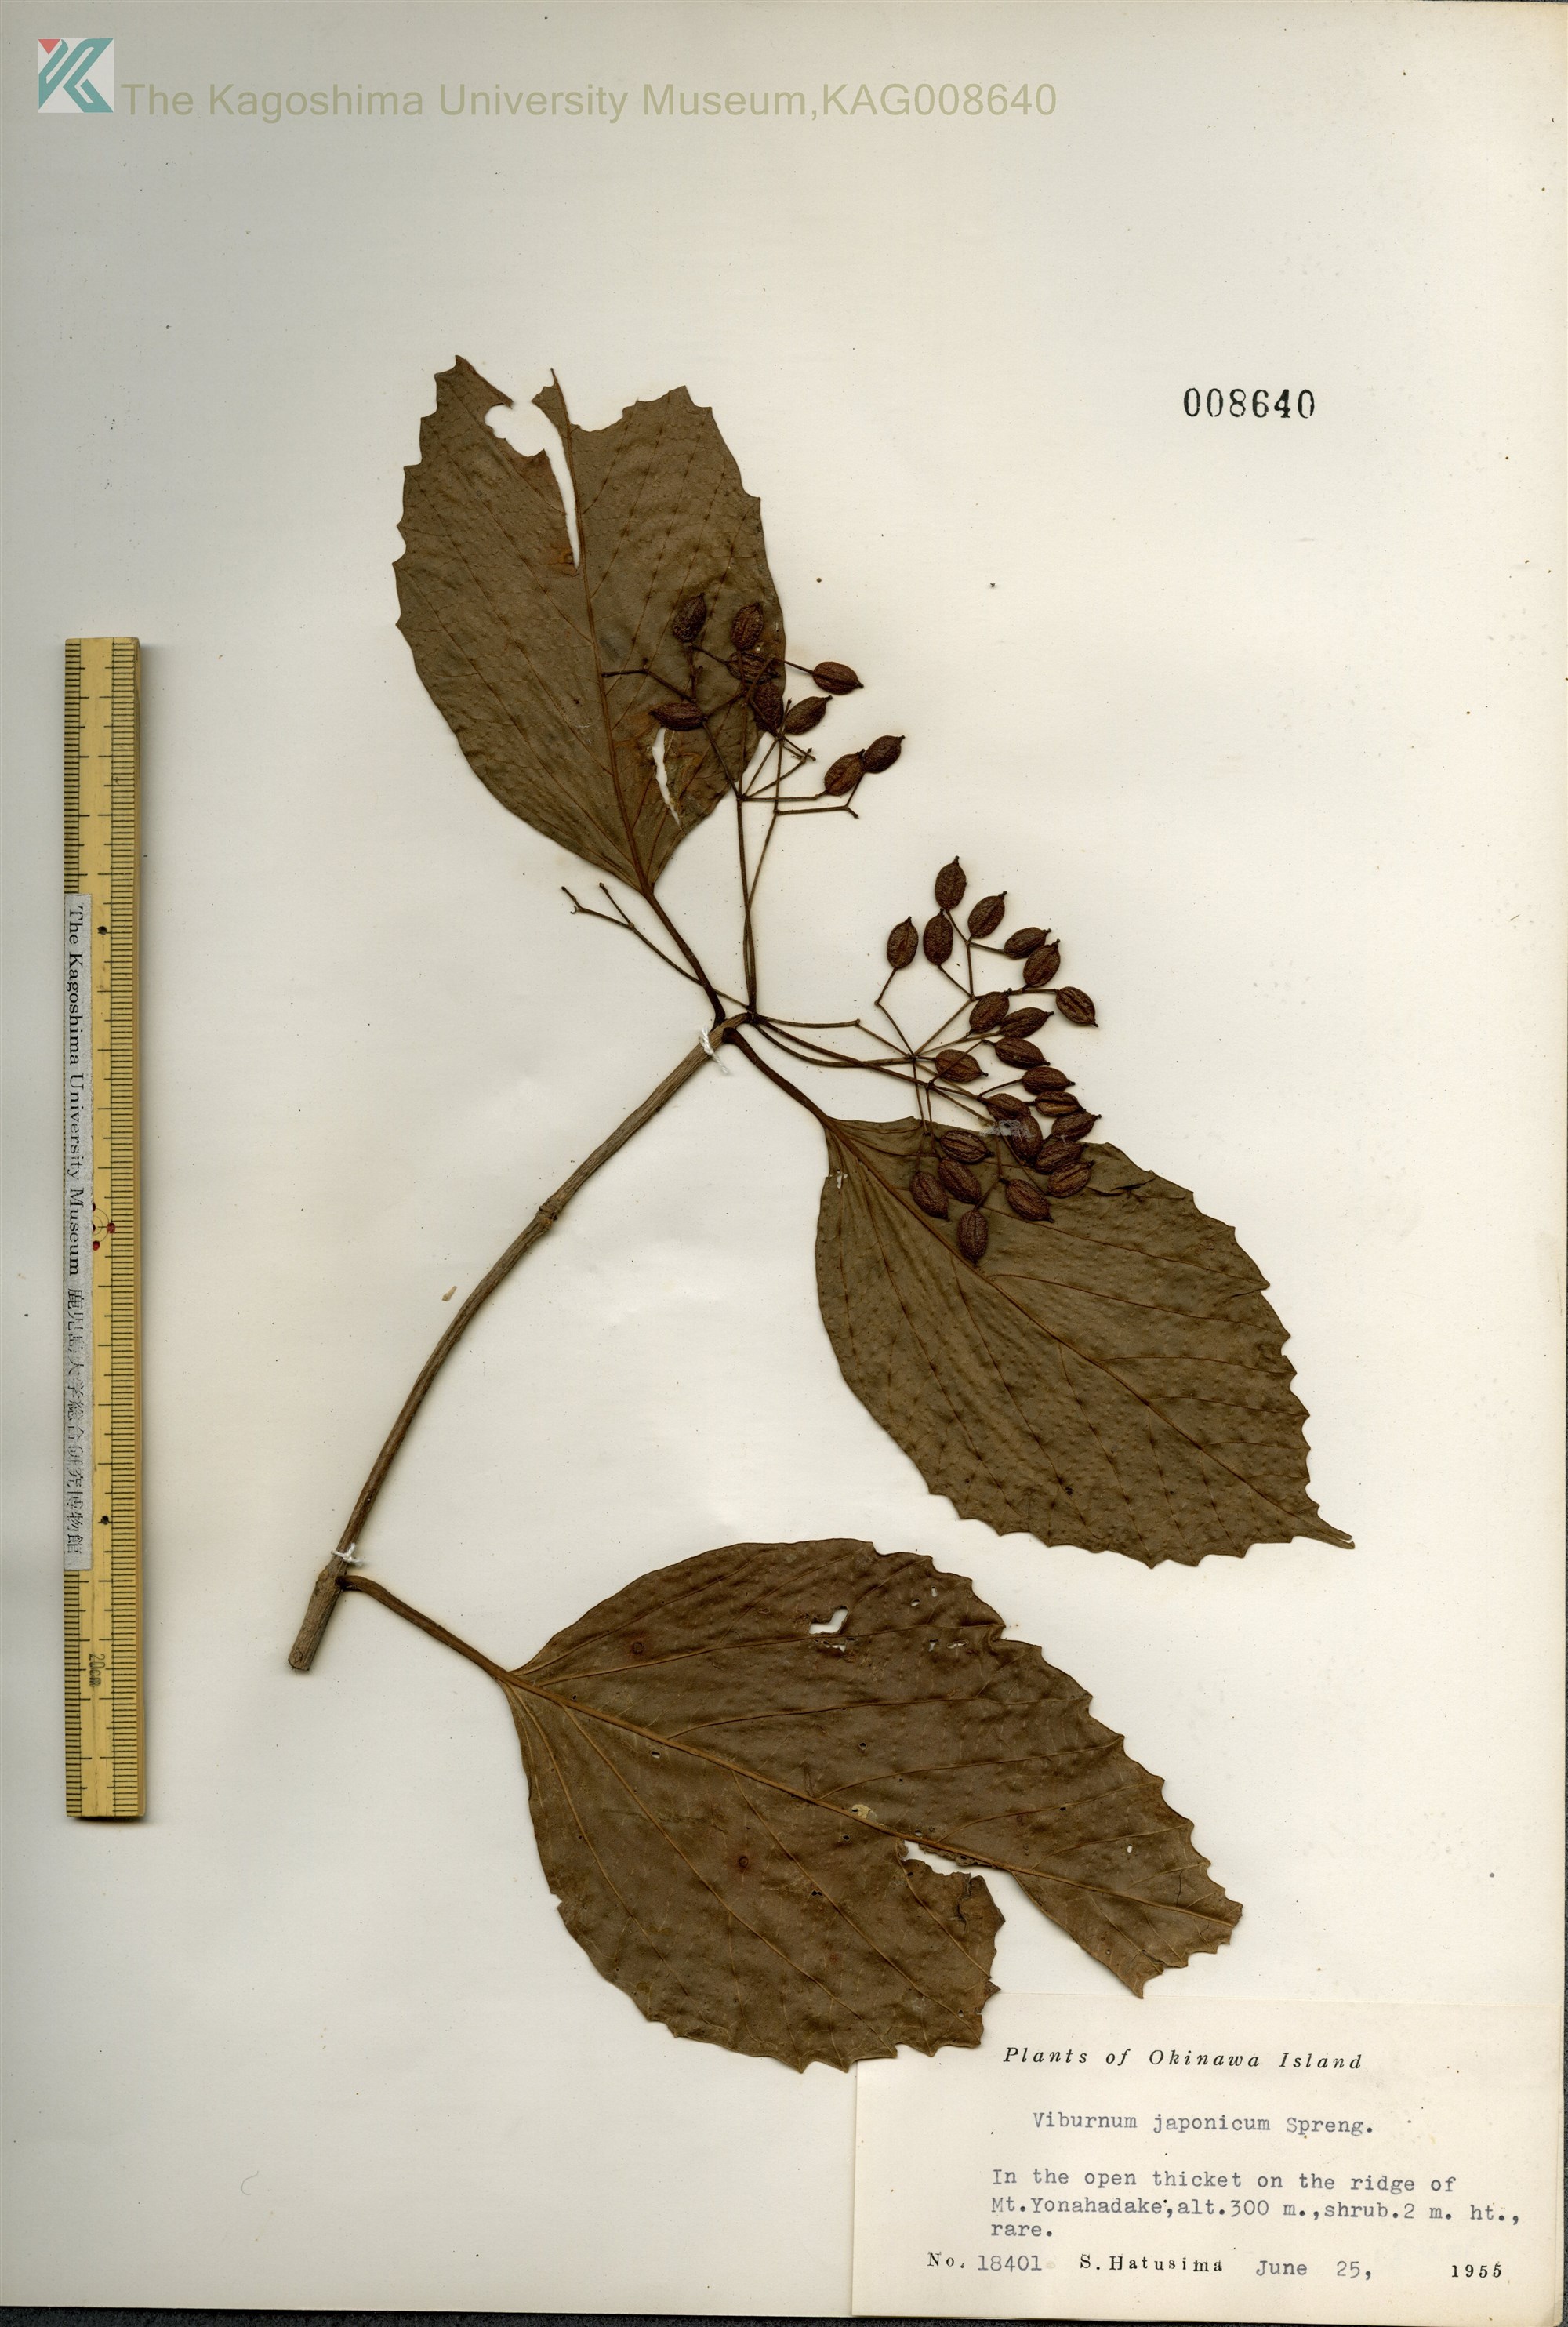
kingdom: Plantae
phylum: Tracheophyta
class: Magnoliopsida
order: Dipsacales
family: Viburnaceae
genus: Viburnum
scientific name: Viburnum japonicum
